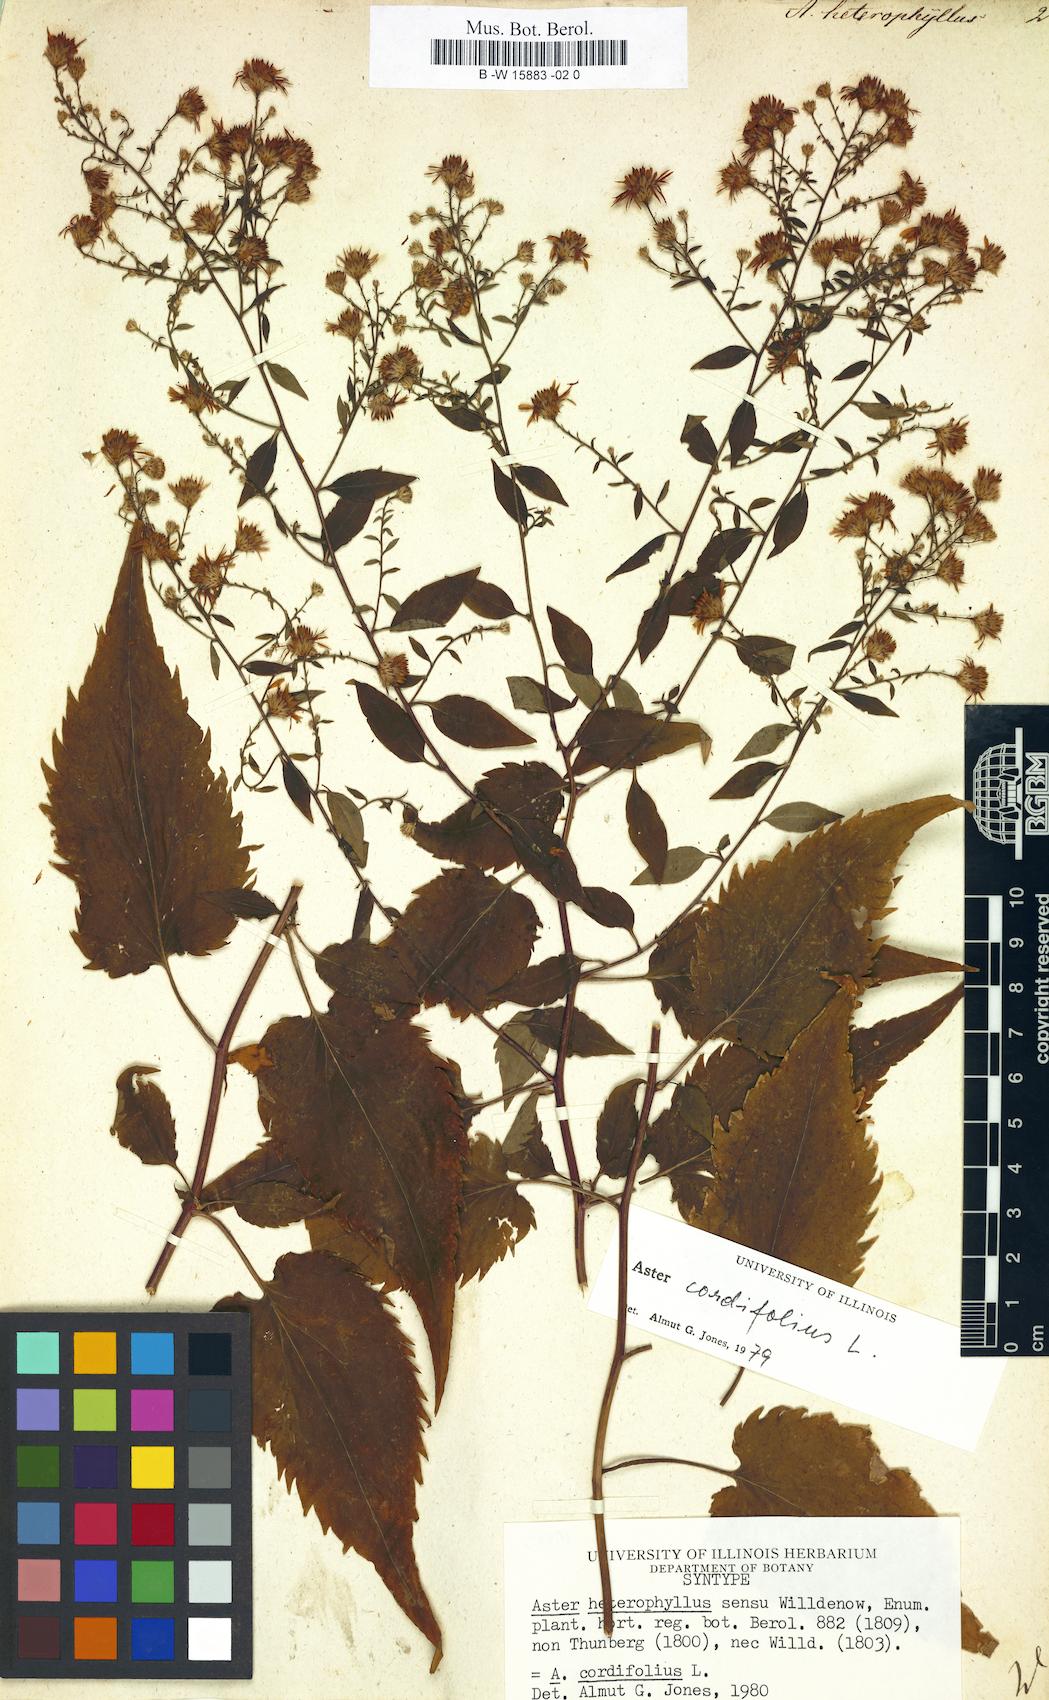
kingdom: Plantae
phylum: Tracheophyta
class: Magnoliopsida
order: Asterales
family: Asteraceae
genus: Isocoma
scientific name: Isocoma pluriflora
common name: Southern jimmyweed
